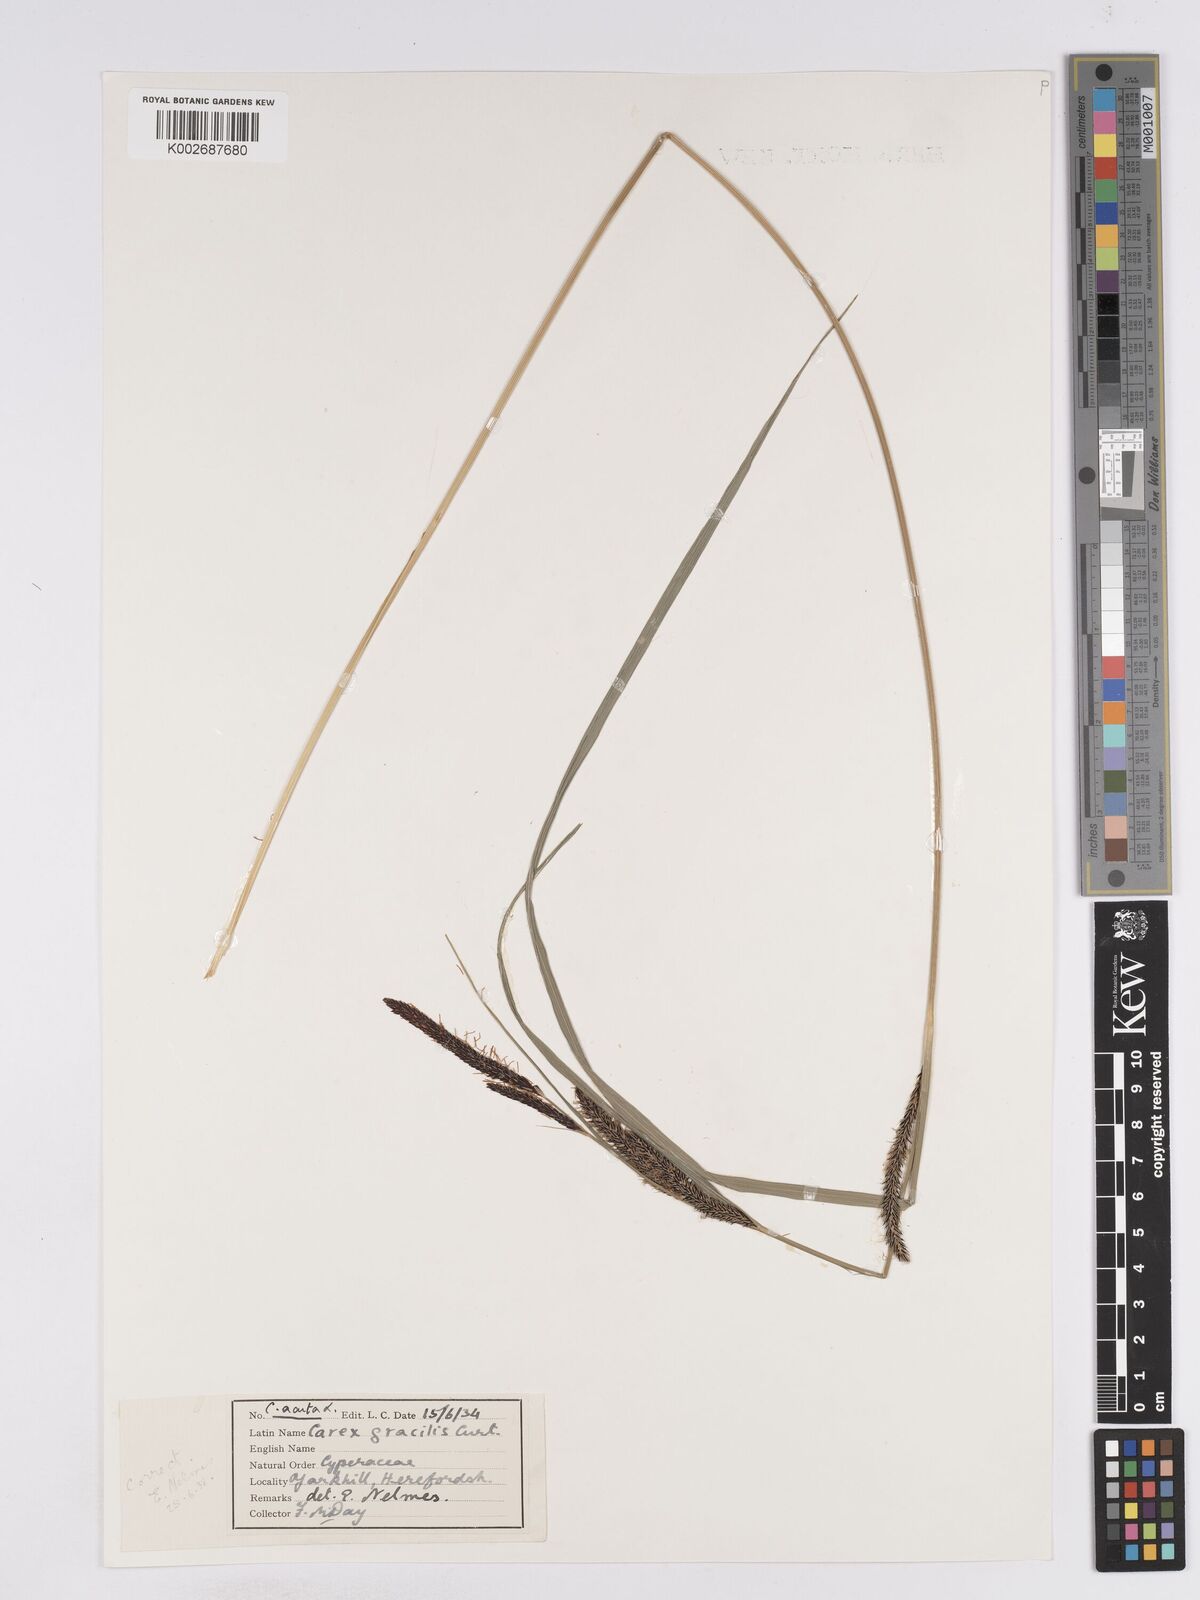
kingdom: Plantae
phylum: Tracheophyta
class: Liliopsida
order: Poales
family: Cyperaceae
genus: Carex
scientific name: Carex acuta
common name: Slender tufted-sedge
